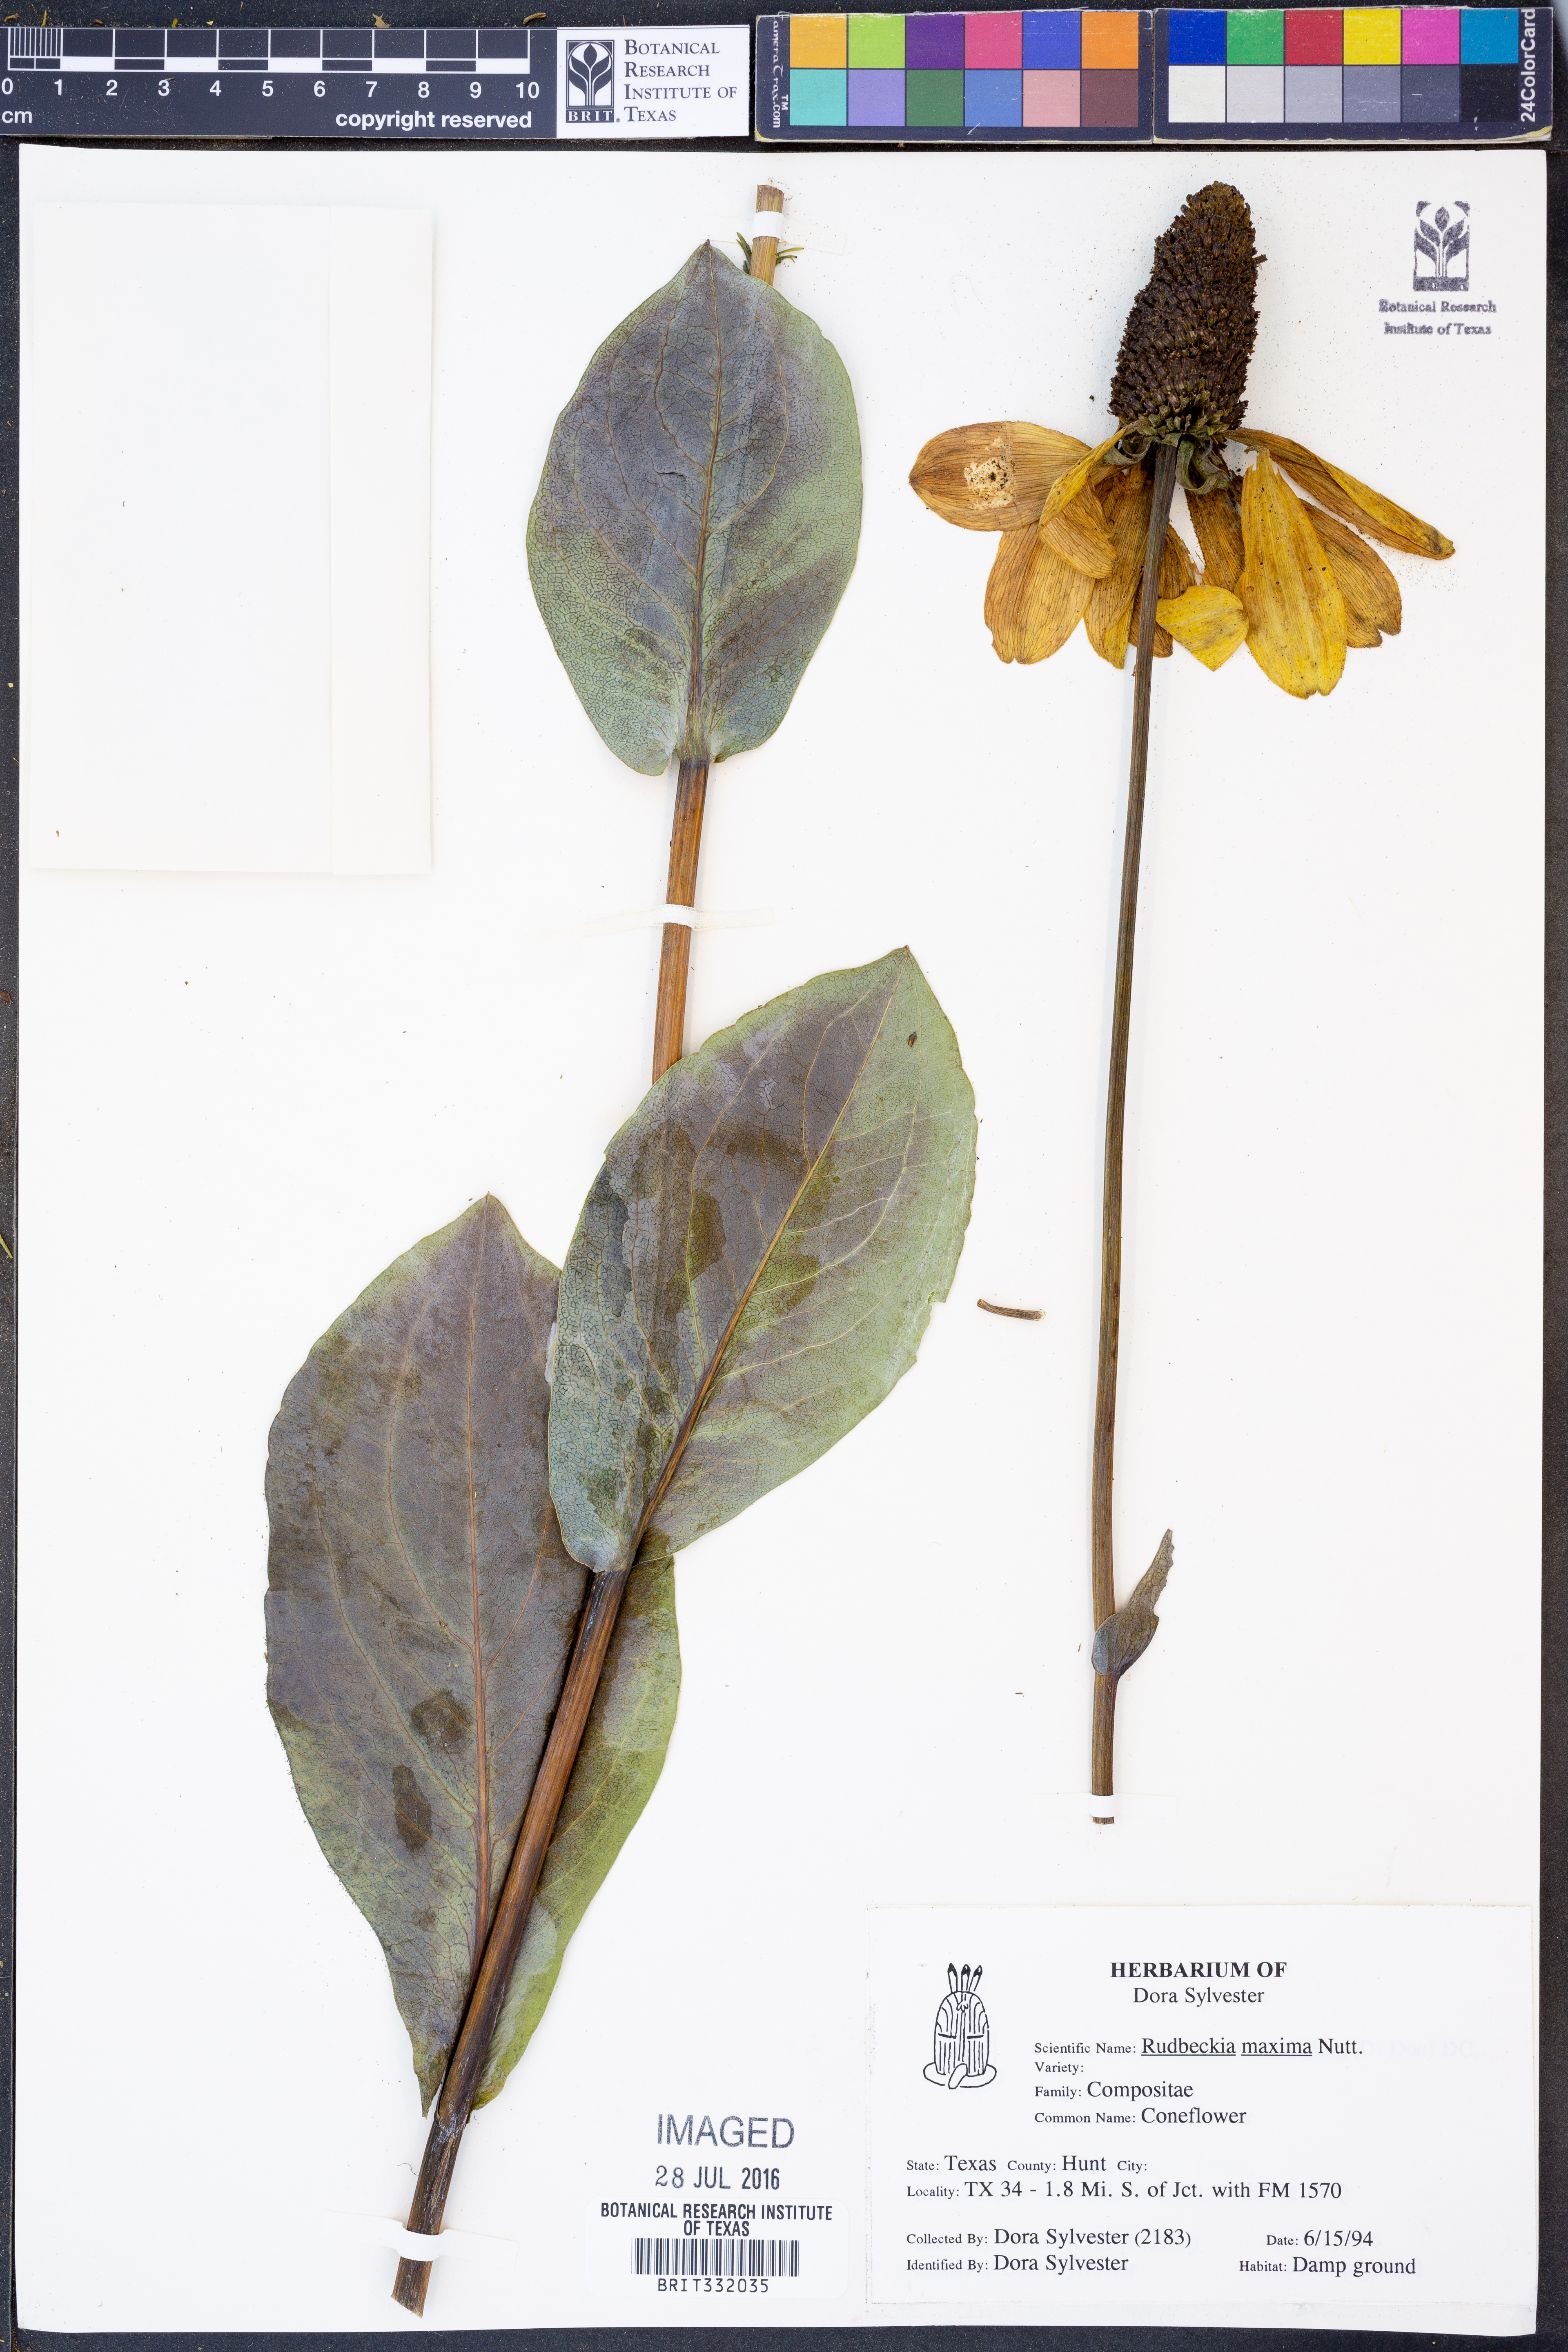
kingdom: Plantae
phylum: Tracheophyta
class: Magnoliopsida
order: Asterales
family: Asteraceae
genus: Rudbeckia
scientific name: Rudbeckia maxima
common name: Cabbage coneflower
